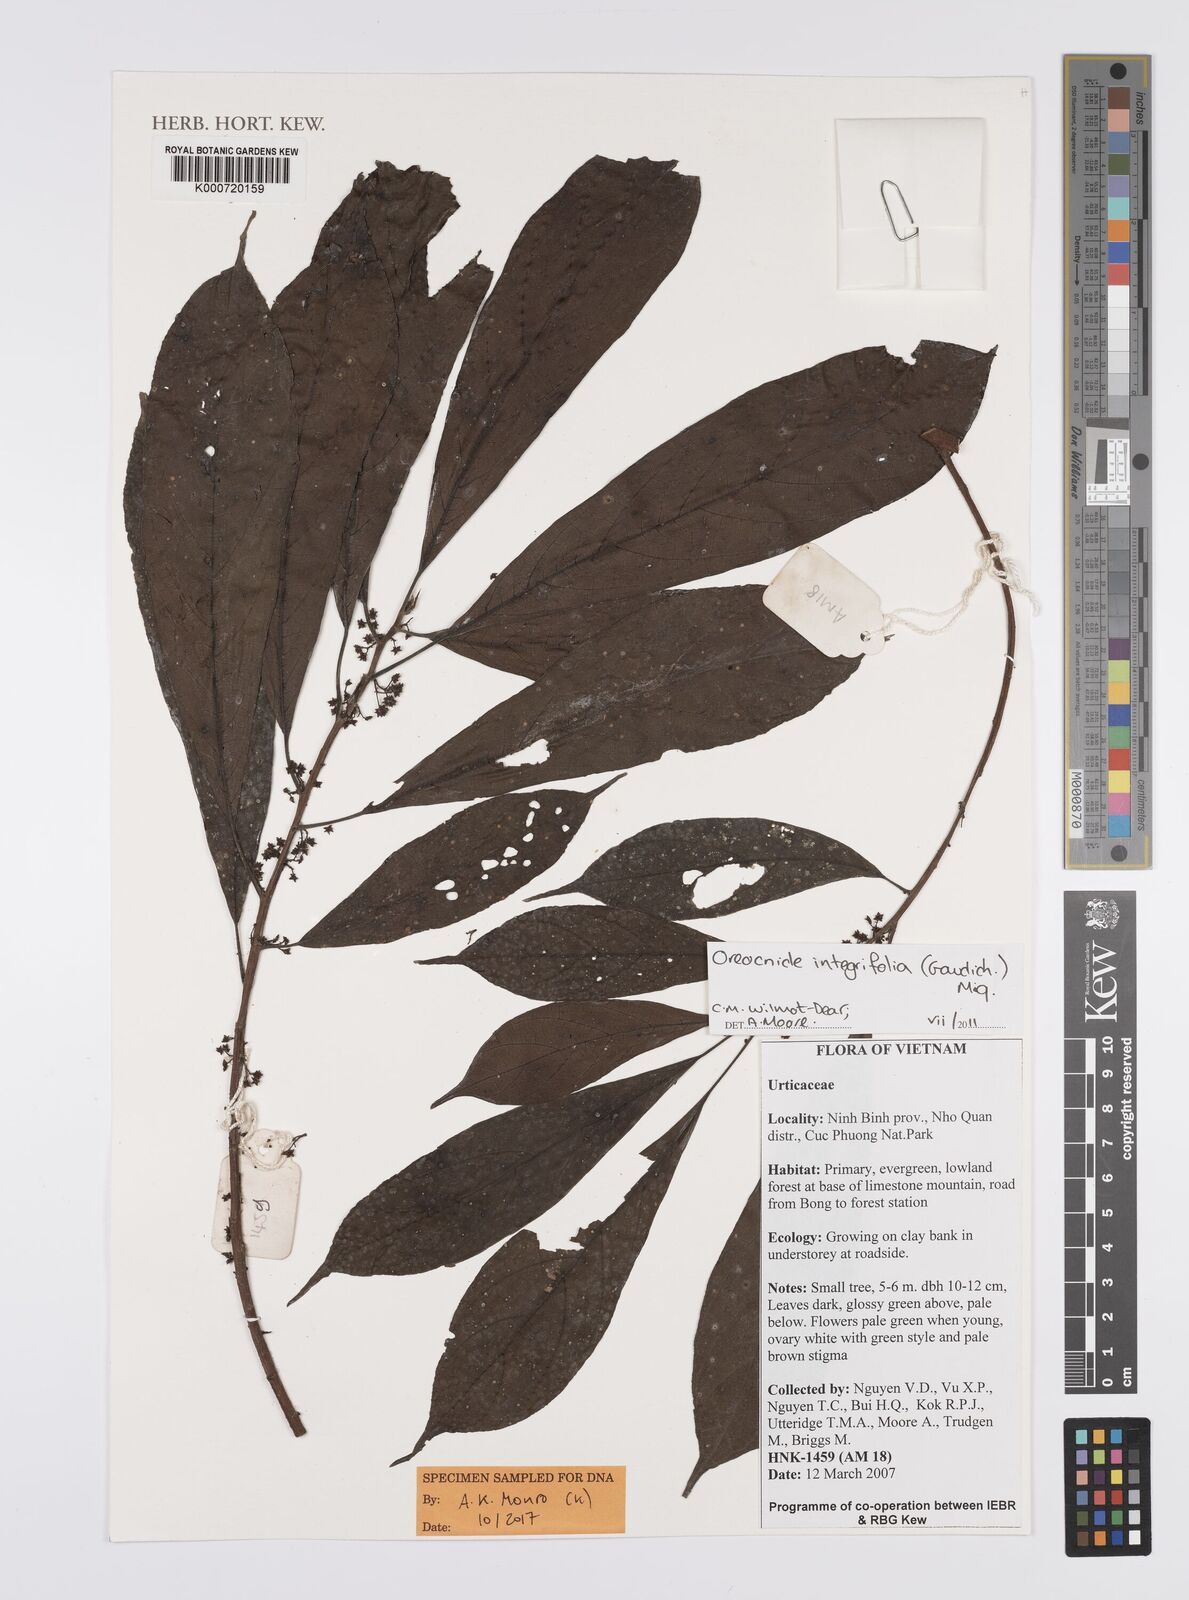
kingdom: Plantae
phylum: Tracheophyta
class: Magnoliopsida
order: Rosales
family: Urticaceae
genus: Oreocnide
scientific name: Oreocnide integrifolia
